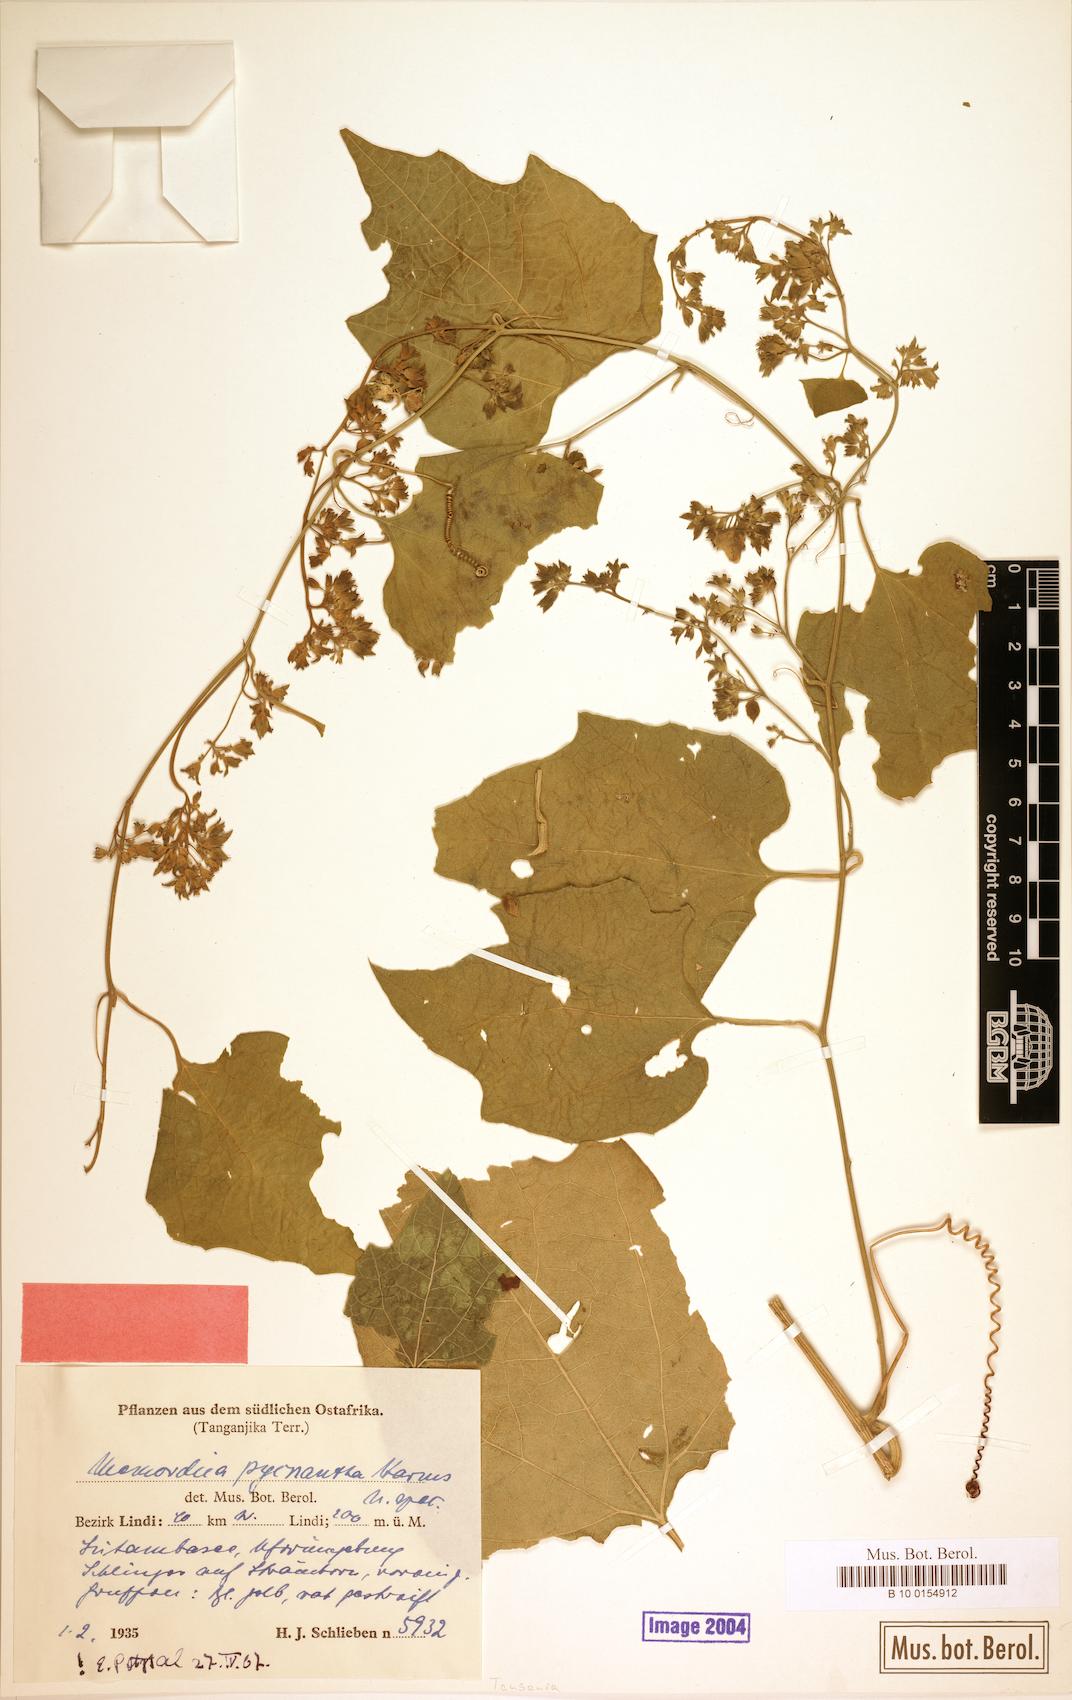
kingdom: Plantae
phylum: Tracheophyta
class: Magnoliopsida
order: Cucurbitales
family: Cucurbitaceae
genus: Momordica
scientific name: Momordica henriquesii
